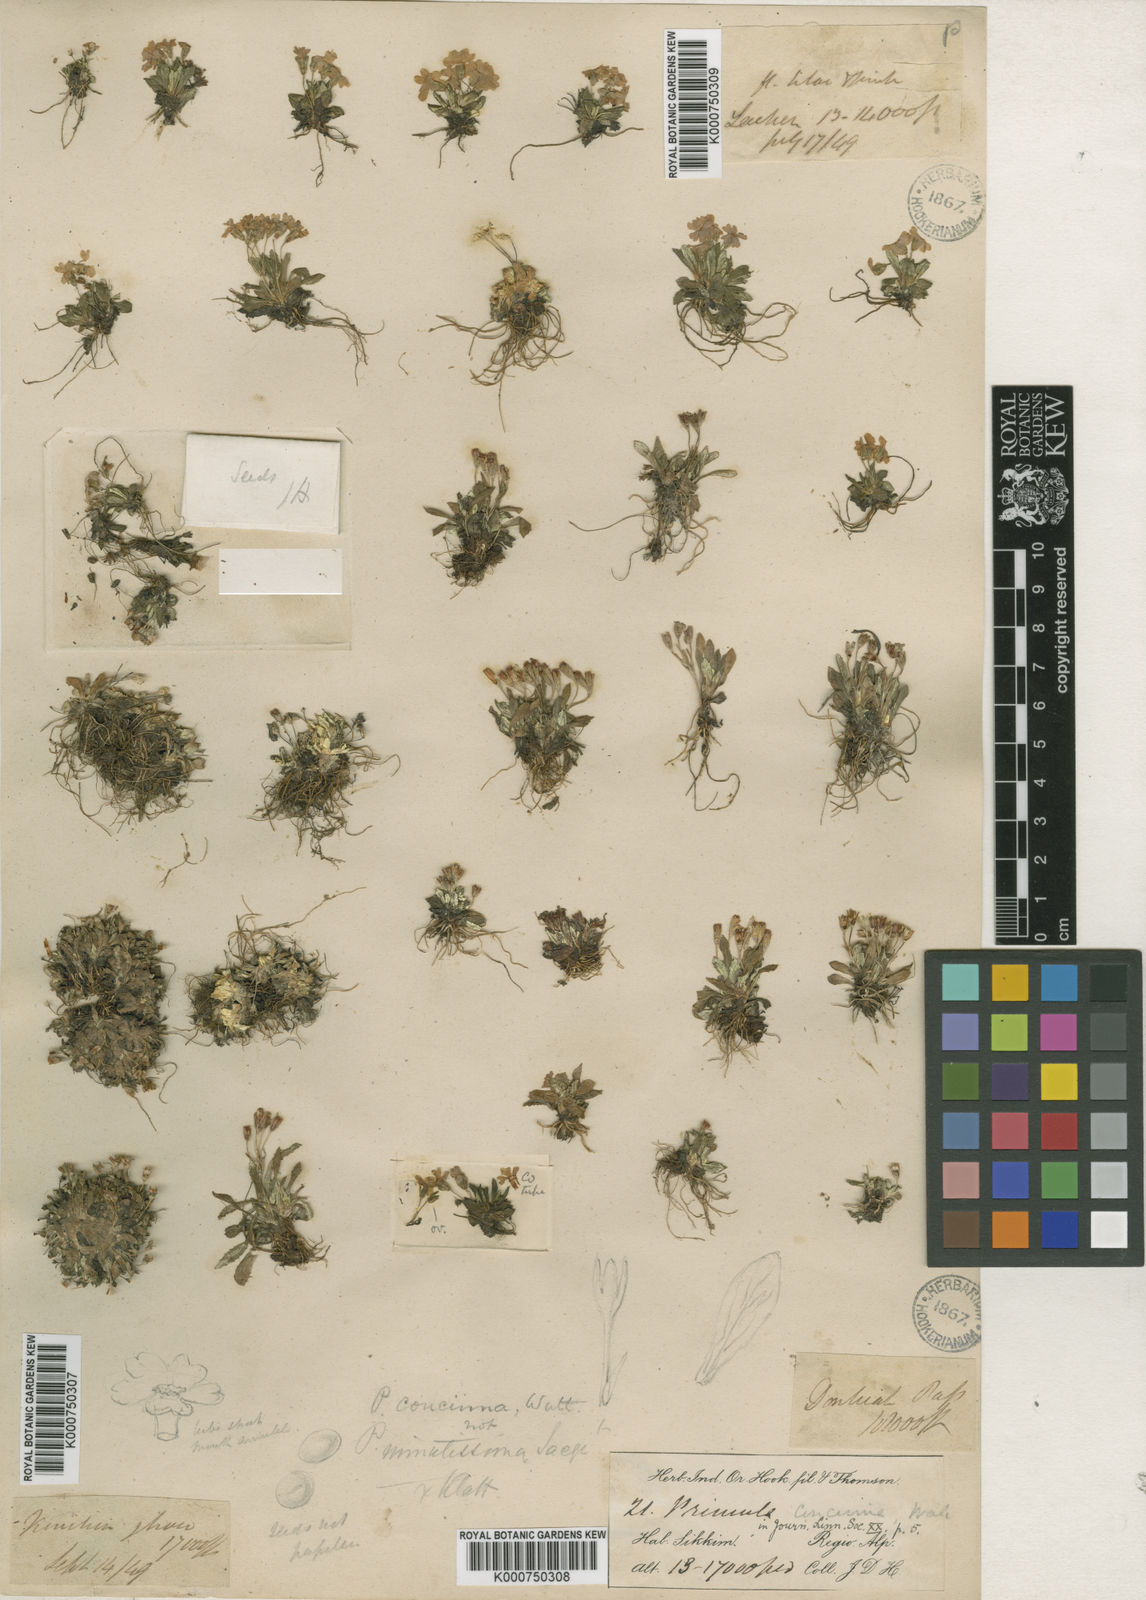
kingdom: Plantae
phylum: Tracheophyta
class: Magnoliopsida
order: Ericales
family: Primulaceae
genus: Primula
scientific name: Primula concinna
